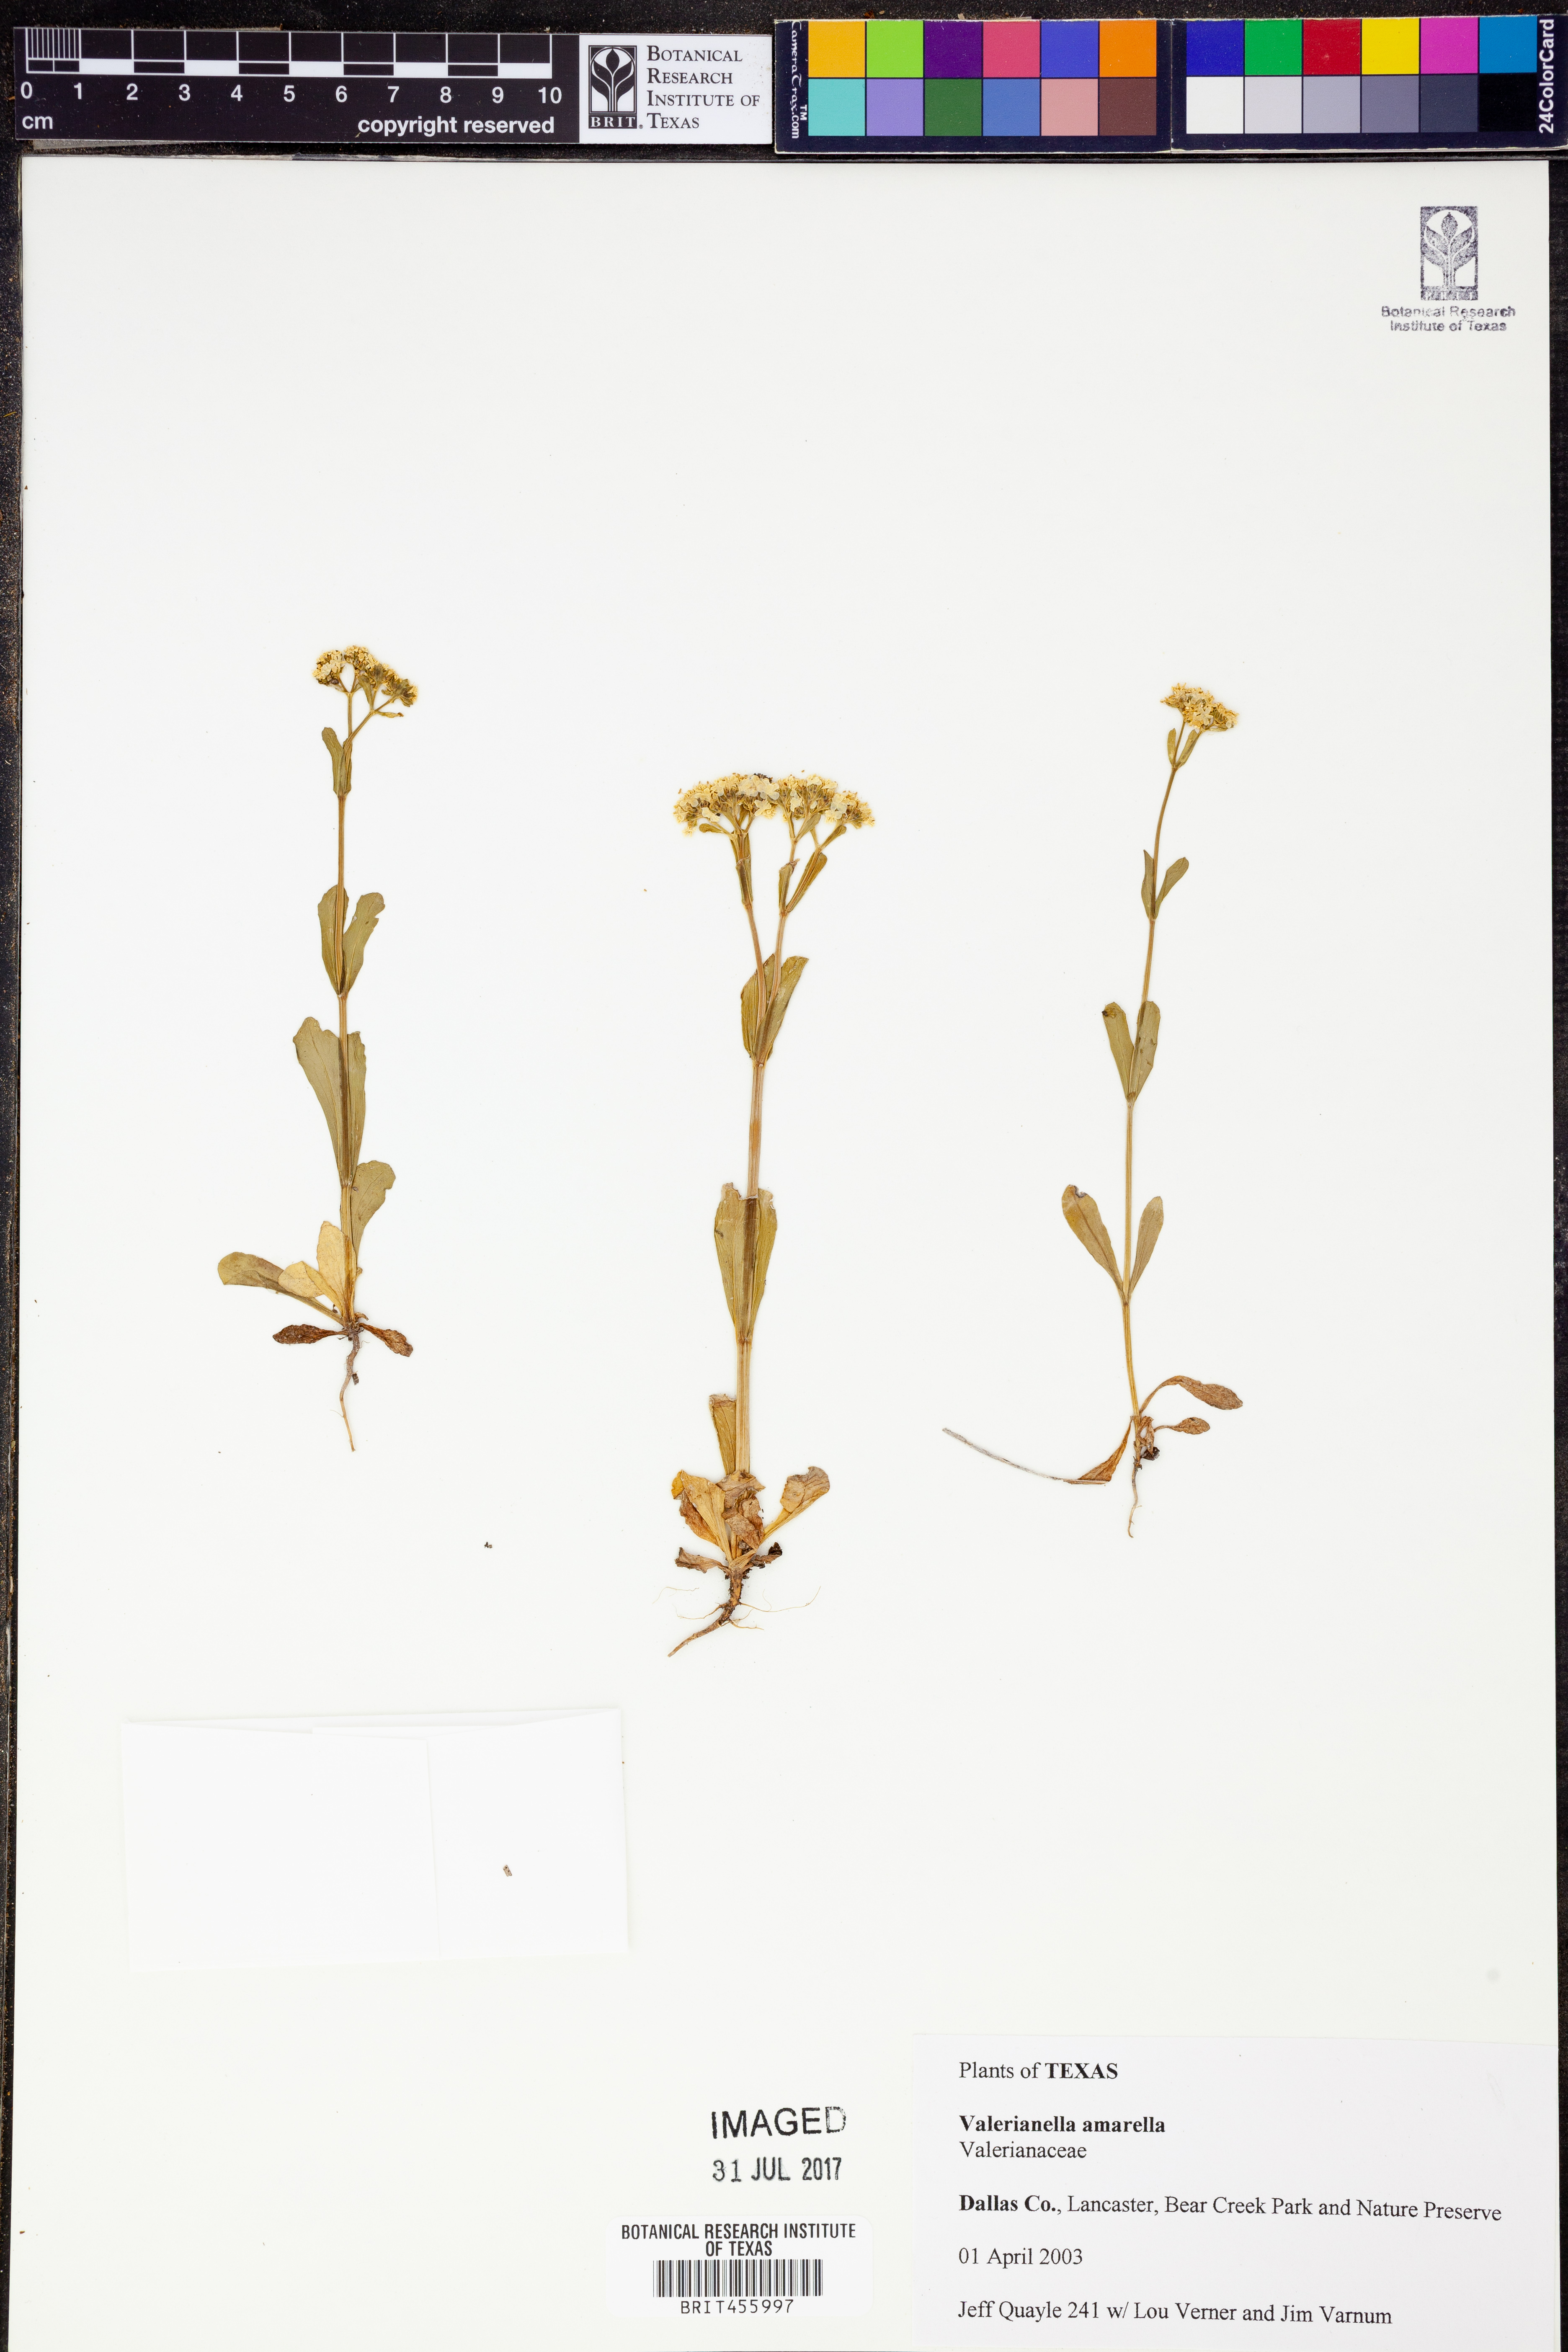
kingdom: Plantae
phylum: Tracheophyta
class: Magnoliopsida
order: Dipsacales
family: Caprifoliaceae
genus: Valerianella
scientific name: Valerianella amarella
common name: Hariy cornsalad
